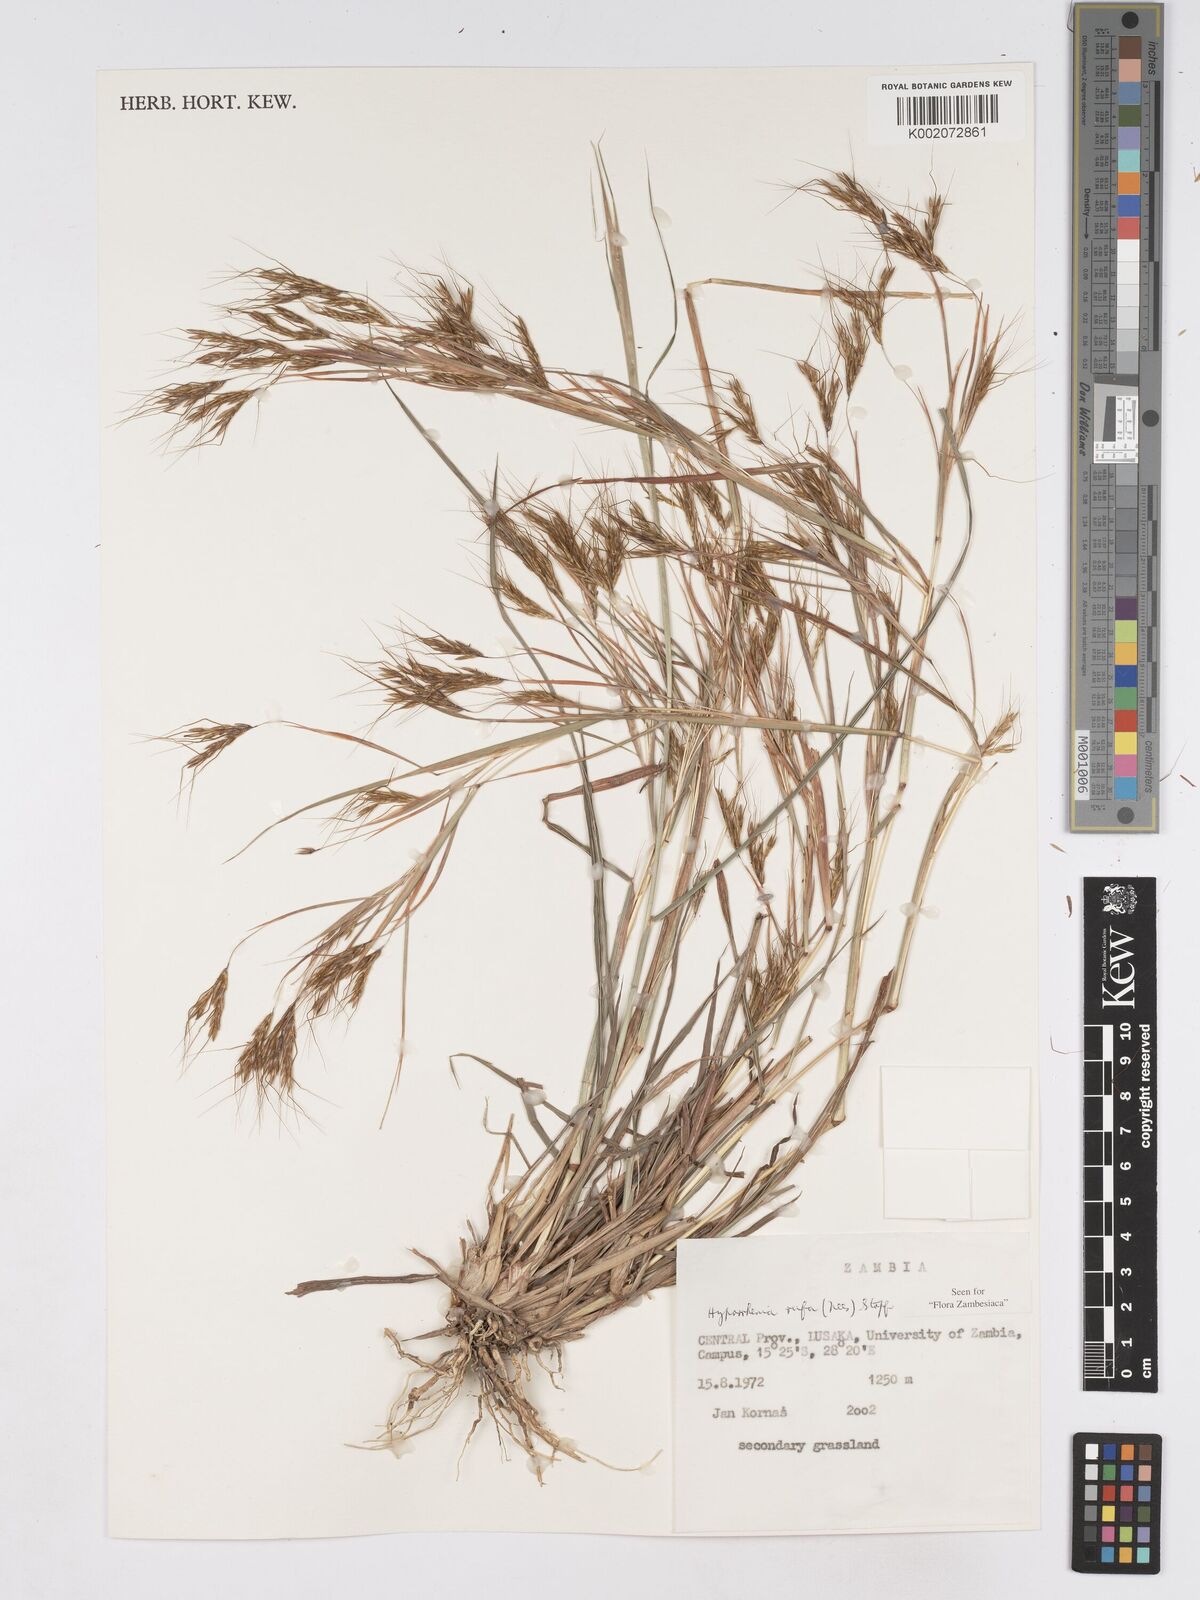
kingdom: Plantae
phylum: Tracheophyta
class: Liliopsida
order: Poales
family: Poaceae
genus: Hyparrhenia
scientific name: Hyparrhenia rufa
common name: Jaraguagrass
